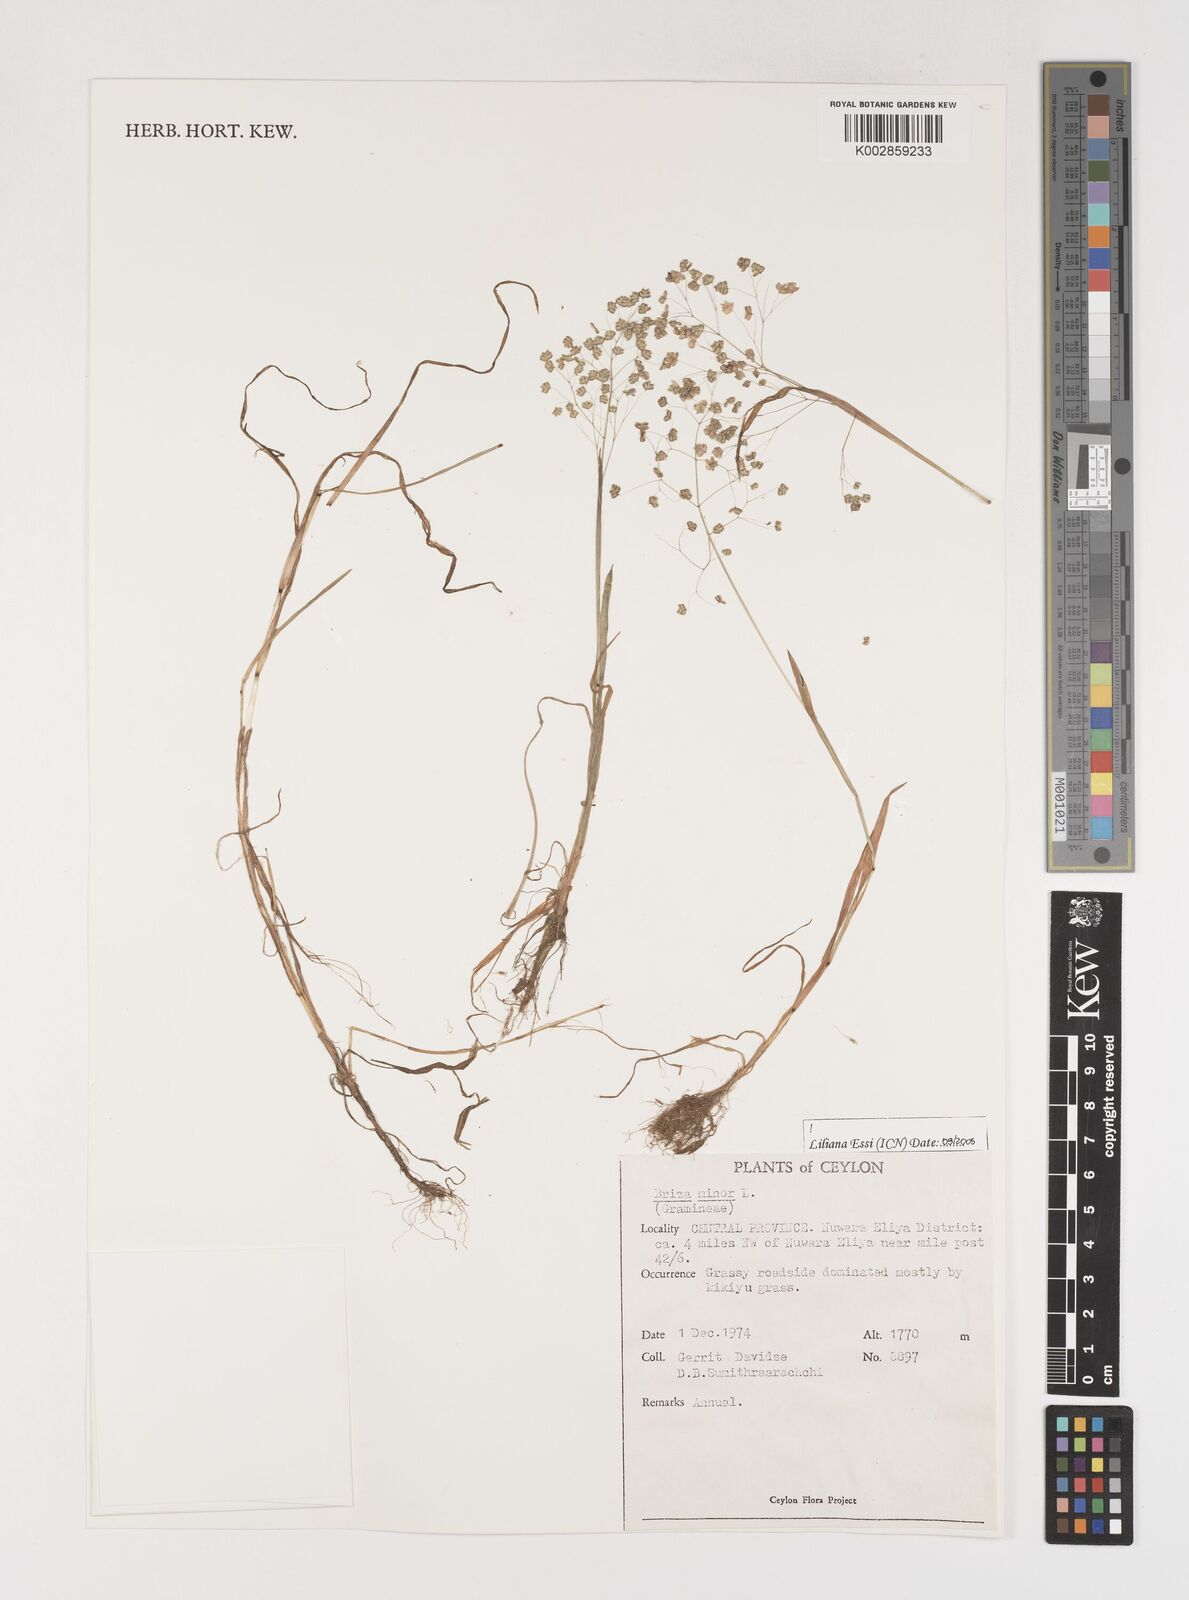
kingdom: Plantae
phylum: Tracheophyta
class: Liliopsida
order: Poales
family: Poaceae
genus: Briza
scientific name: Briza minor
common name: Lesser quaking-grass
